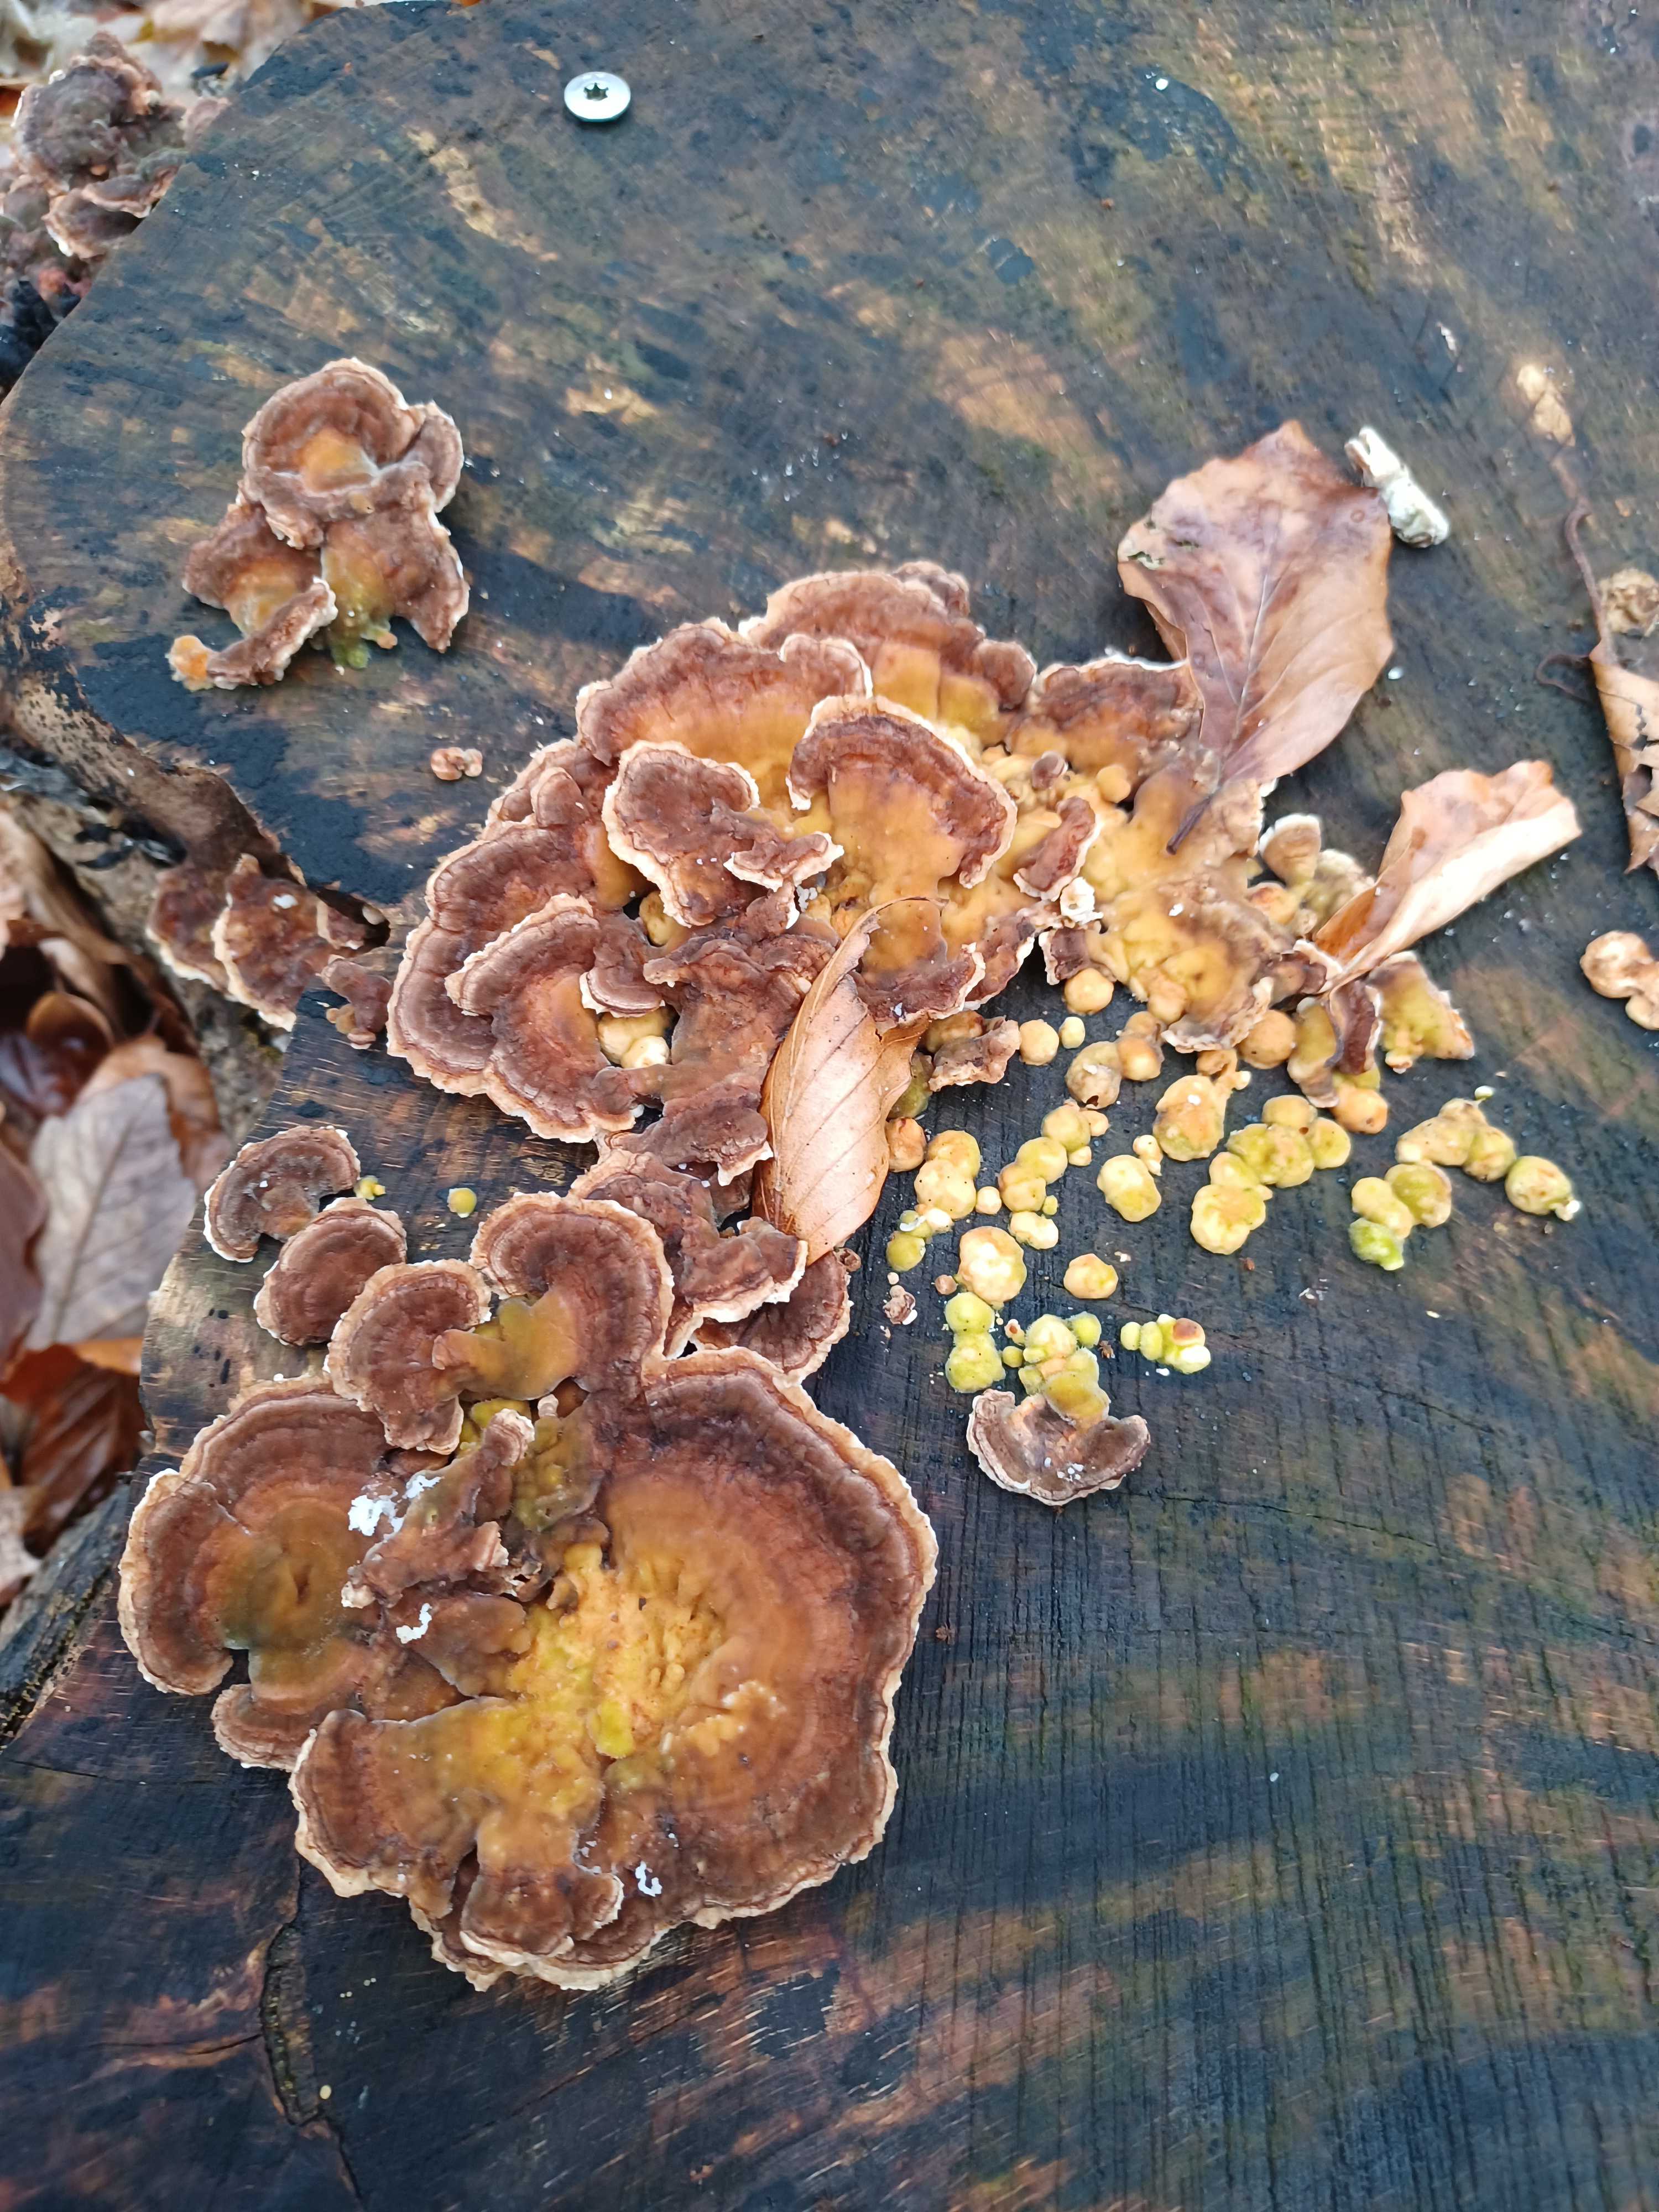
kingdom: Fungi
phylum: Basidiomycota
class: Agaricomycetes
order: Polyporales
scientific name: Polyporales
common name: poresvampordenen
